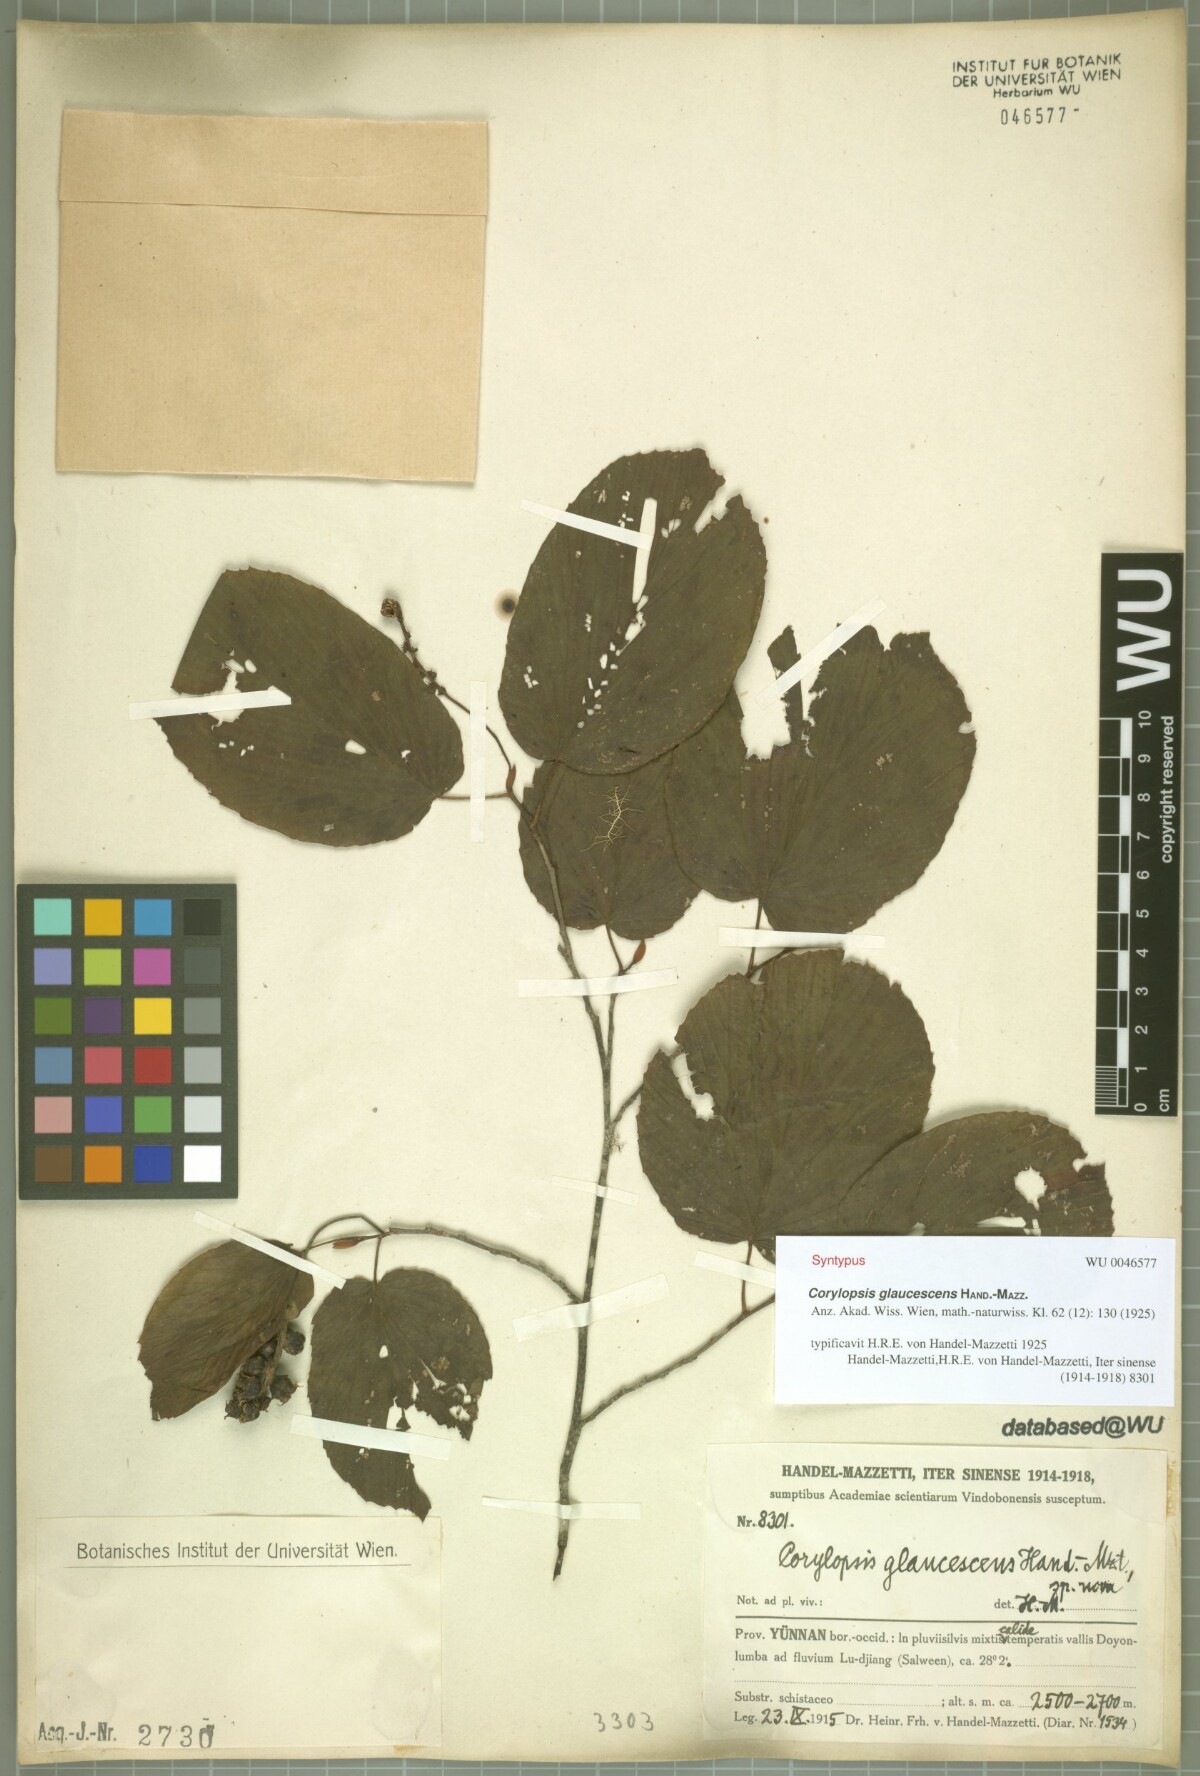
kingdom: Plantae
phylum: Tracheophyta
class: Magnoliopsida
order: Saxifragales
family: Hamamelidaceae
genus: Corylopsis
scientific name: Corylopsis glaucescens
